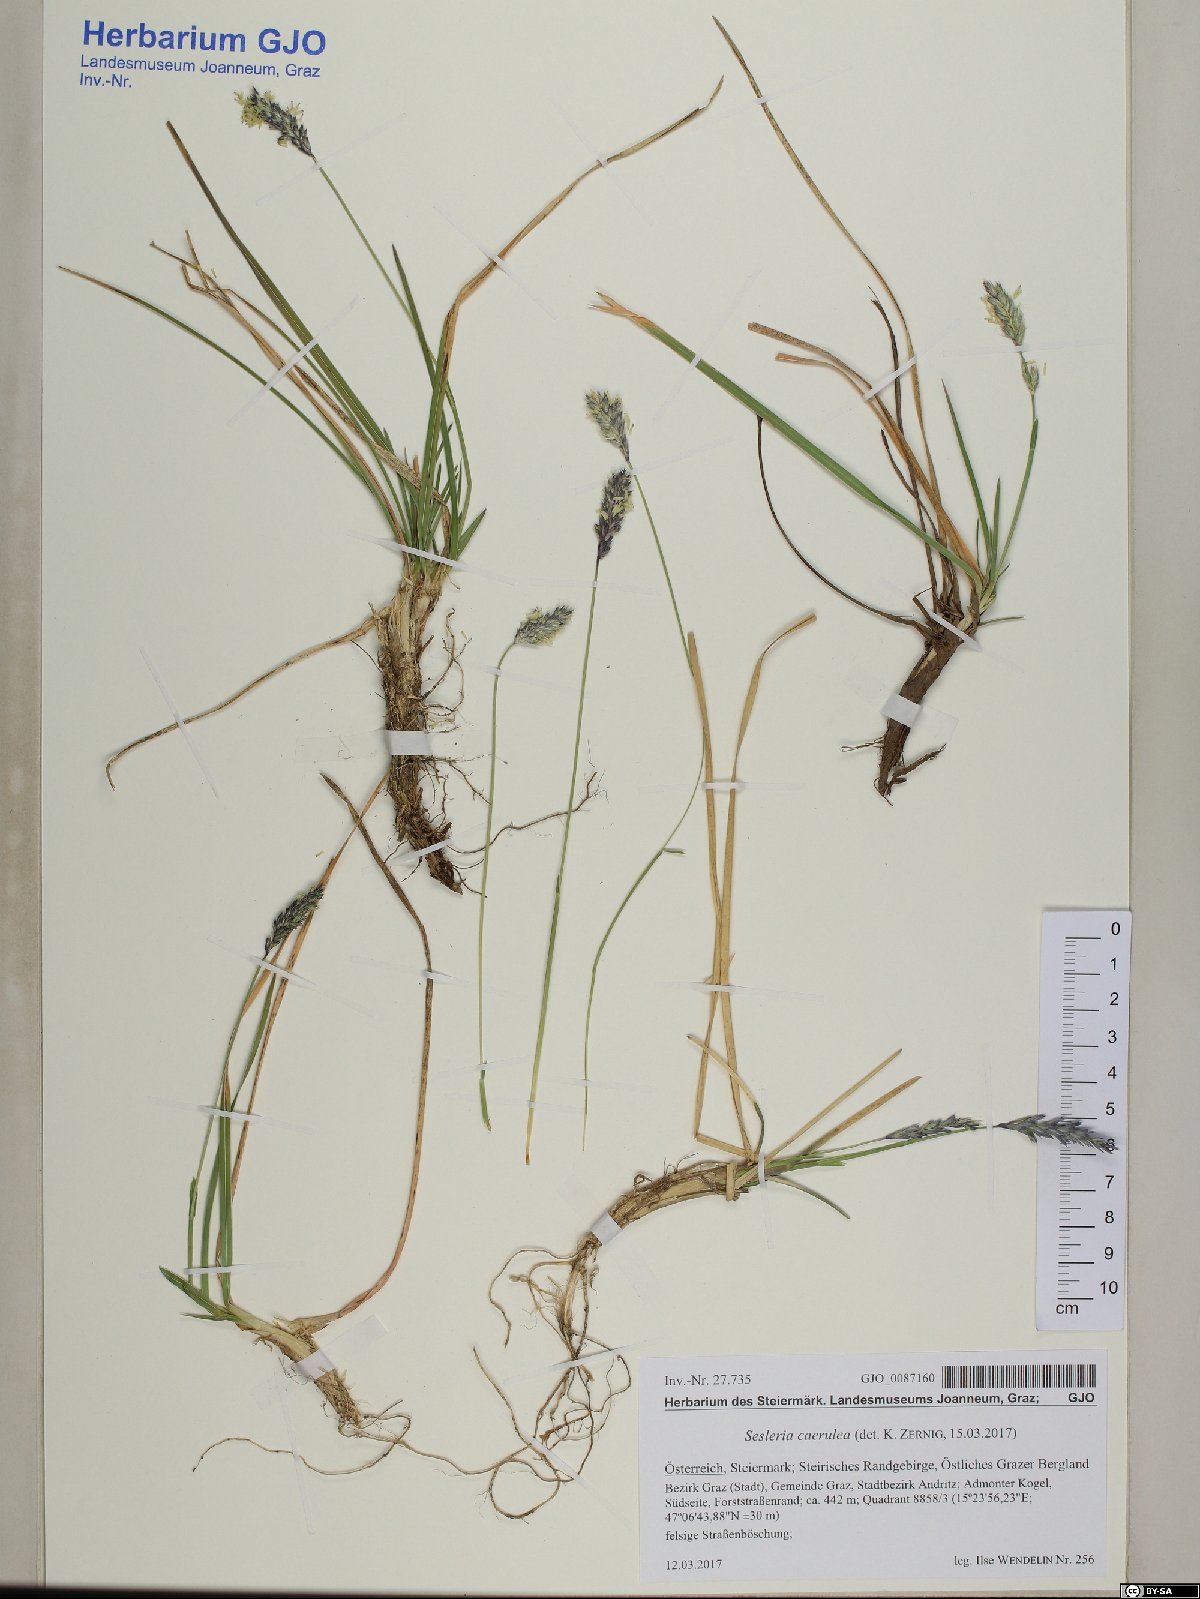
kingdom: Plantae
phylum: Tracheophyta
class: Liliopsida
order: Poales
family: Poaceae
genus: Sesleria
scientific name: Sesleria caerulea
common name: Blue moor-grass
